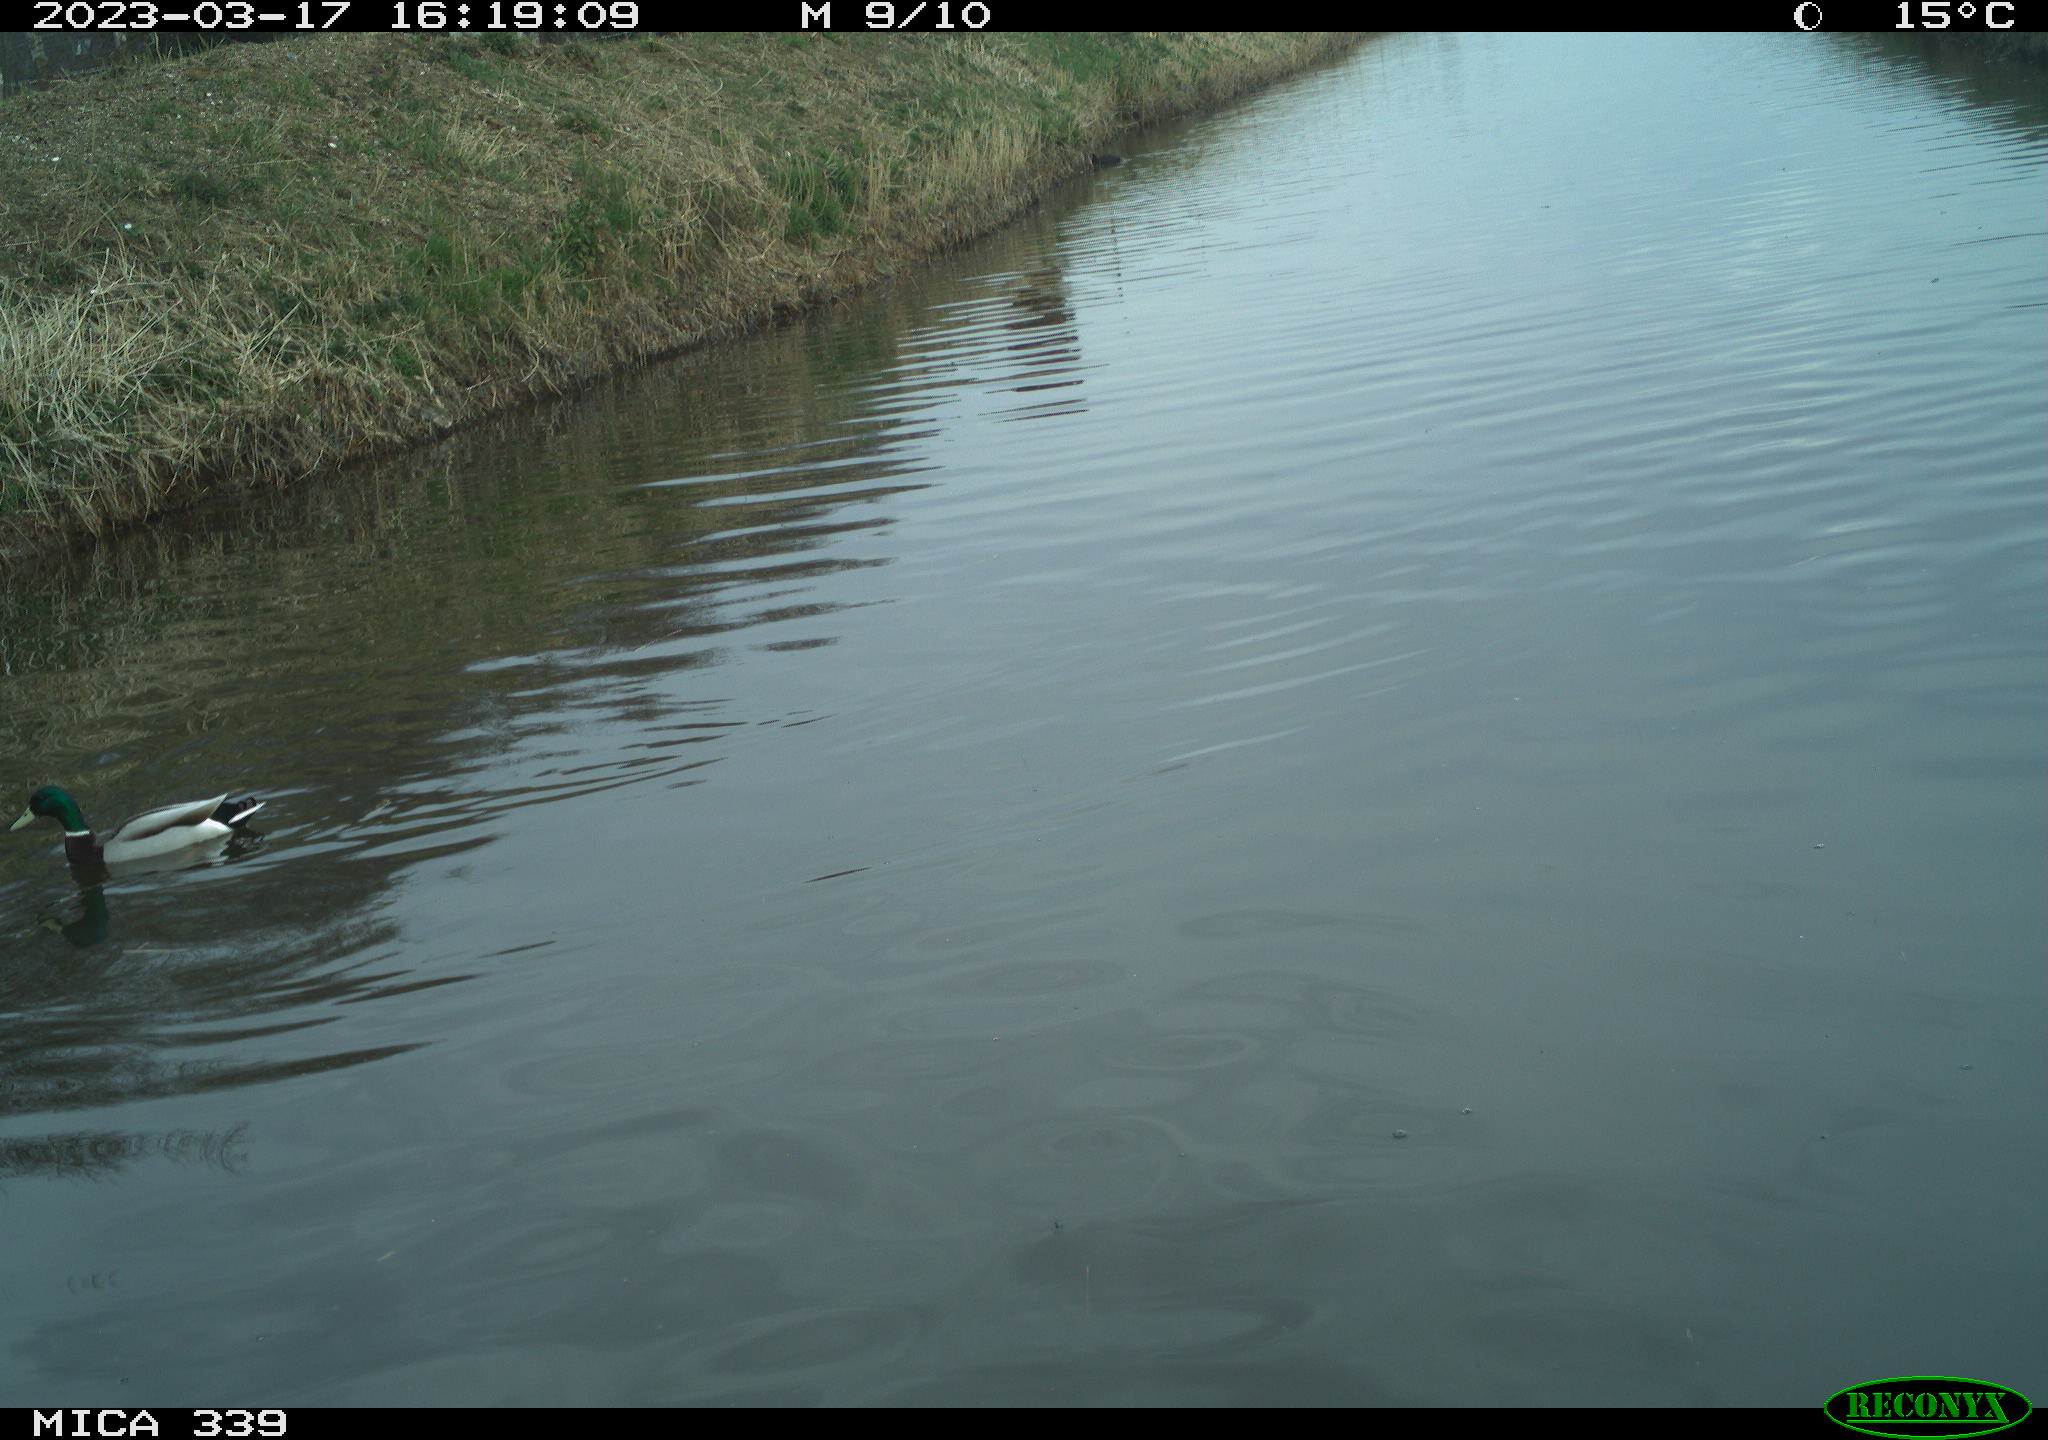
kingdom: Animalia
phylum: Chordata
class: Aves
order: Anseriformes
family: Anatidae
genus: Anas
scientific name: Anas
